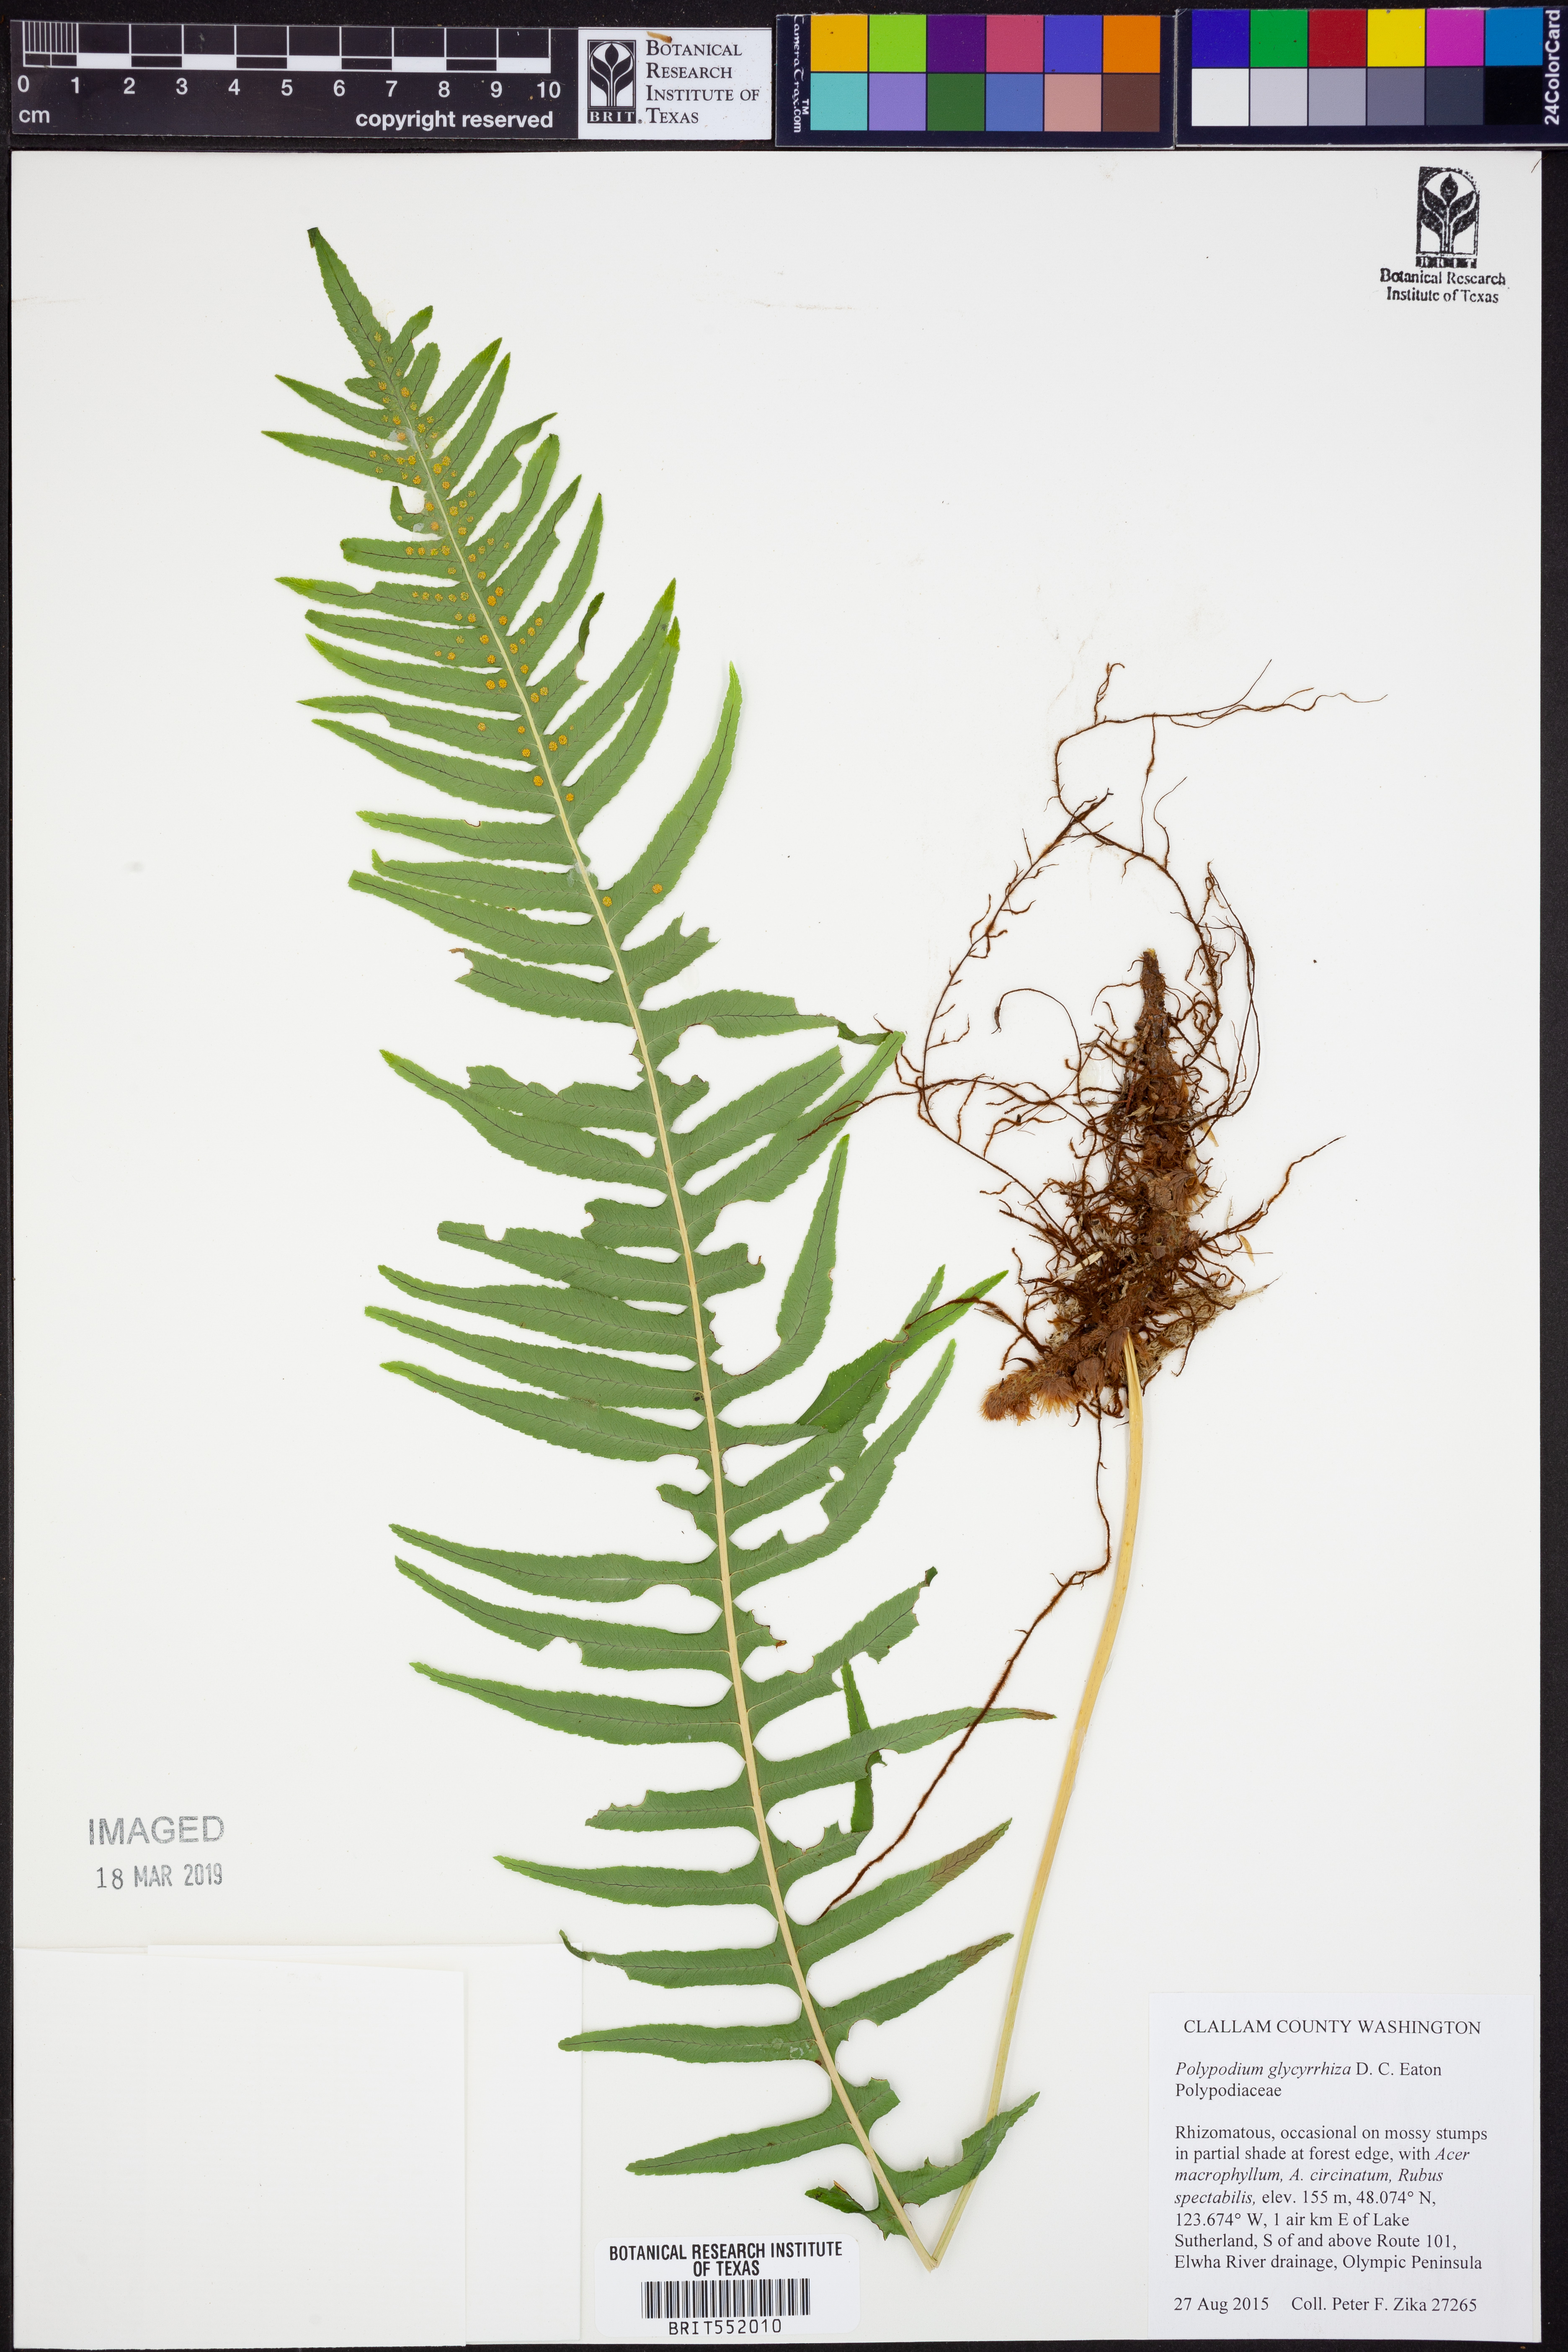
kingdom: Plantae
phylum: Tracheophyta
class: Polypodiopsida
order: Polypodiales
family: Polypodiaceae
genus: Polypodium
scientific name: Polypodium glycyrrhiza
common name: Licorice fern
